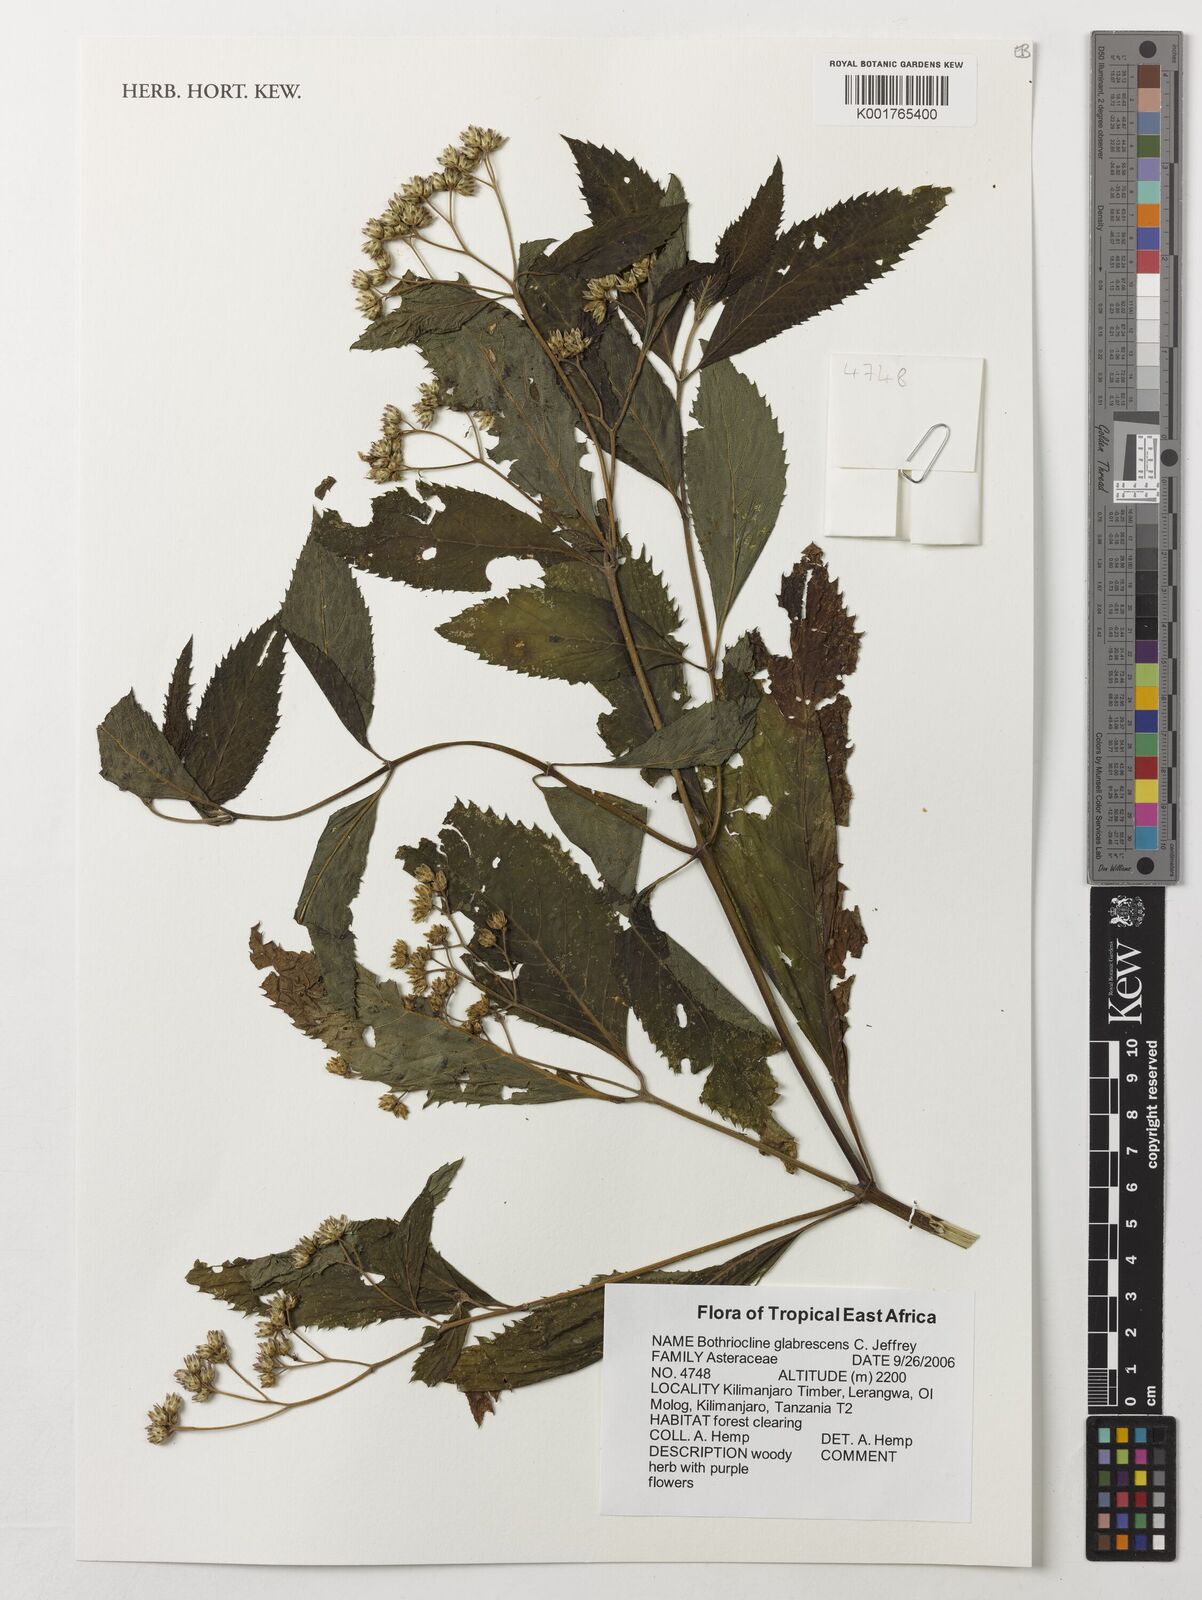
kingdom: Plantae
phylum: Tracheophyta
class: Magnoliopsida
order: Asterales
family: Asteraceae
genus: Bothriocline
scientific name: Bothriocline glabrescens
